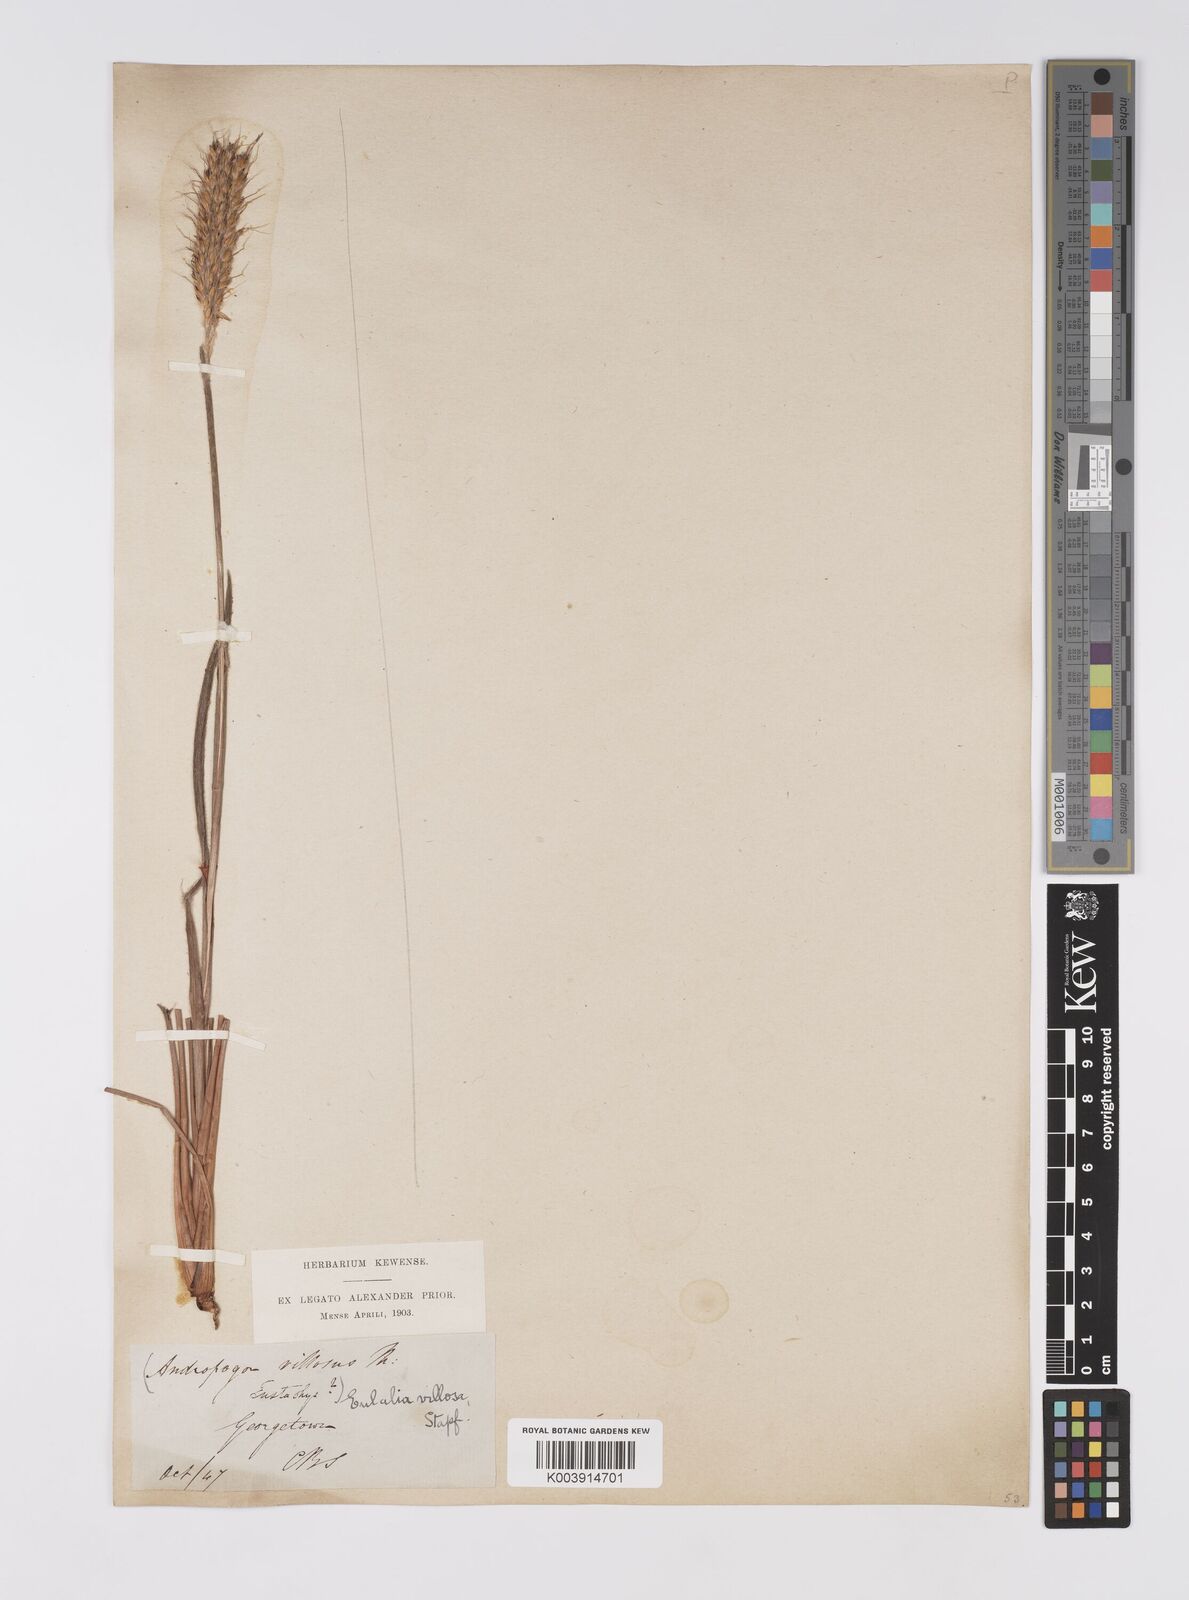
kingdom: Plantae
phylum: Tracheophyta
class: Liliopsida
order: Poales
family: Poaceae
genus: Eulalia
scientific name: Eulalia villosa
